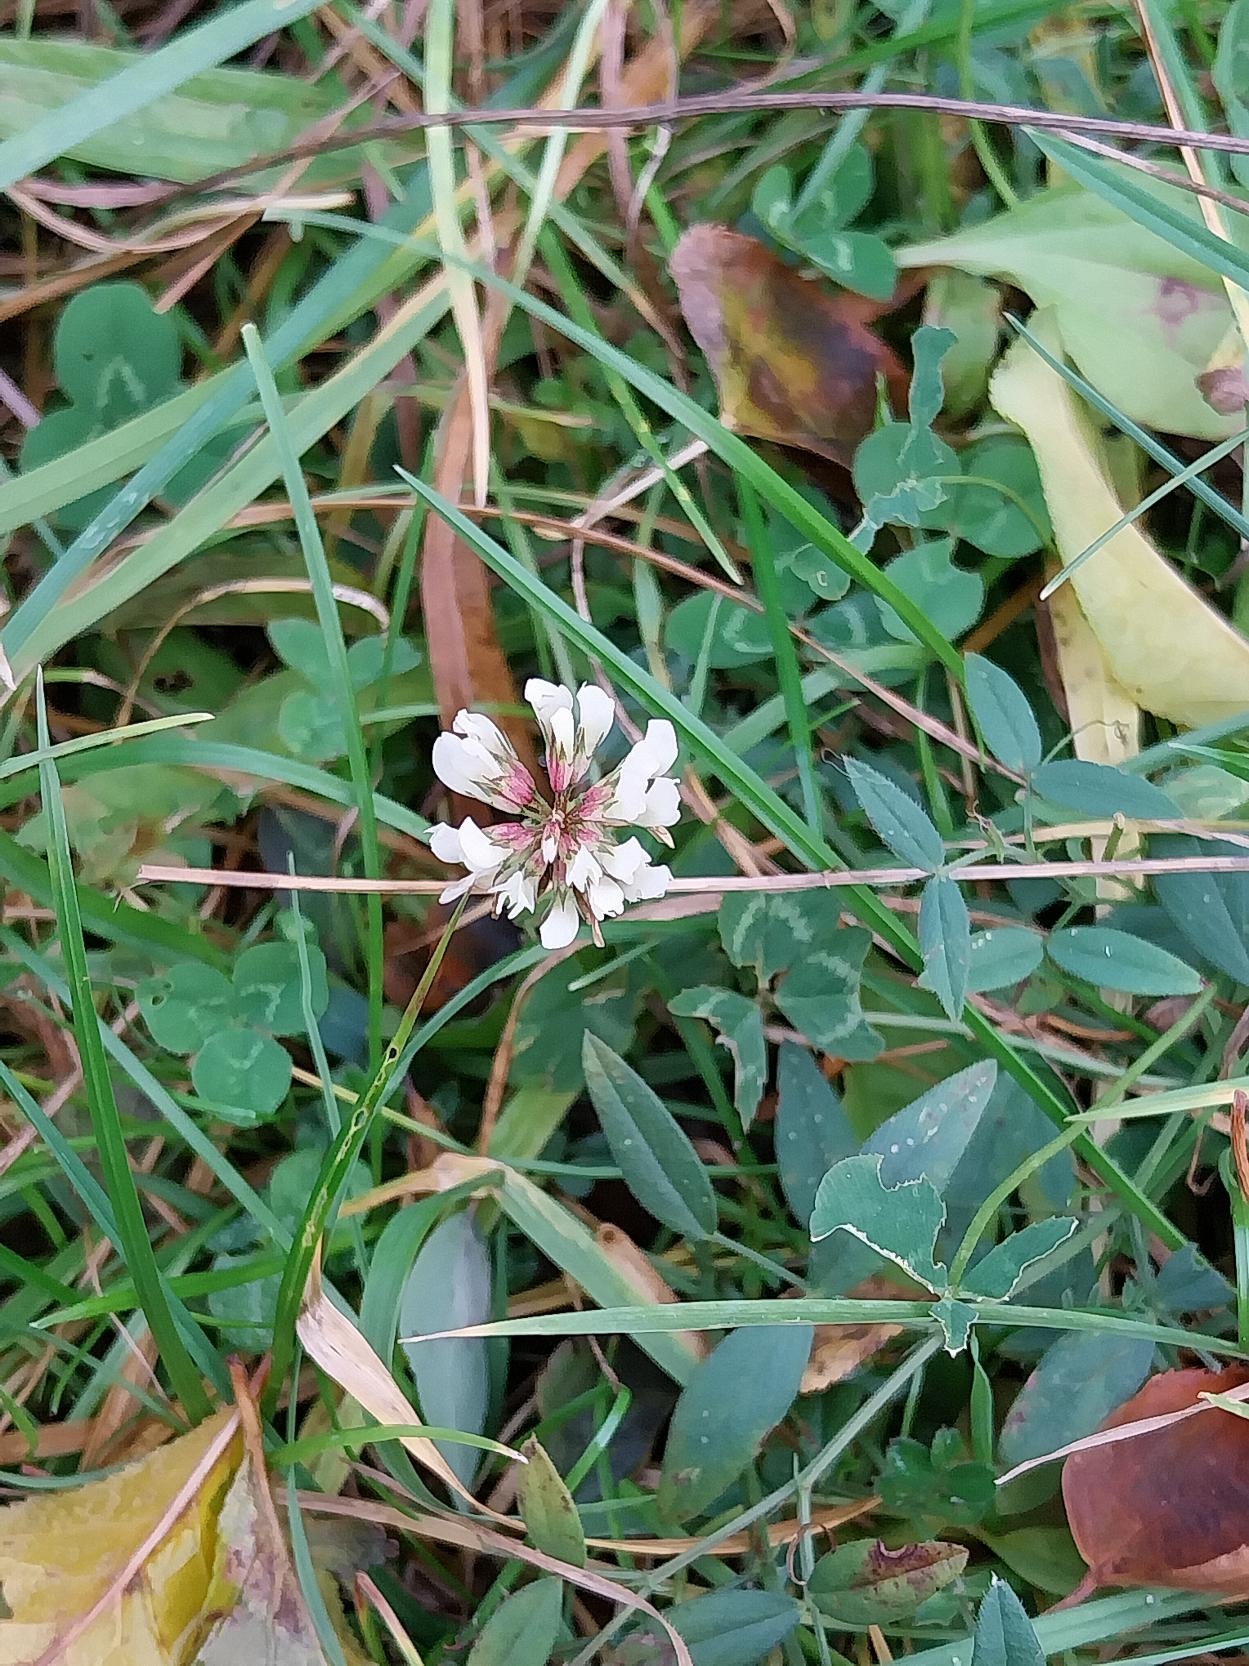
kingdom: Plantae
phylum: Tracheophyta
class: Magnoliopsida
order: Fabales
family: Fabaceae
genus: Trifolium
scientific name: Trifolium repens
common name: Hvid-kløver
